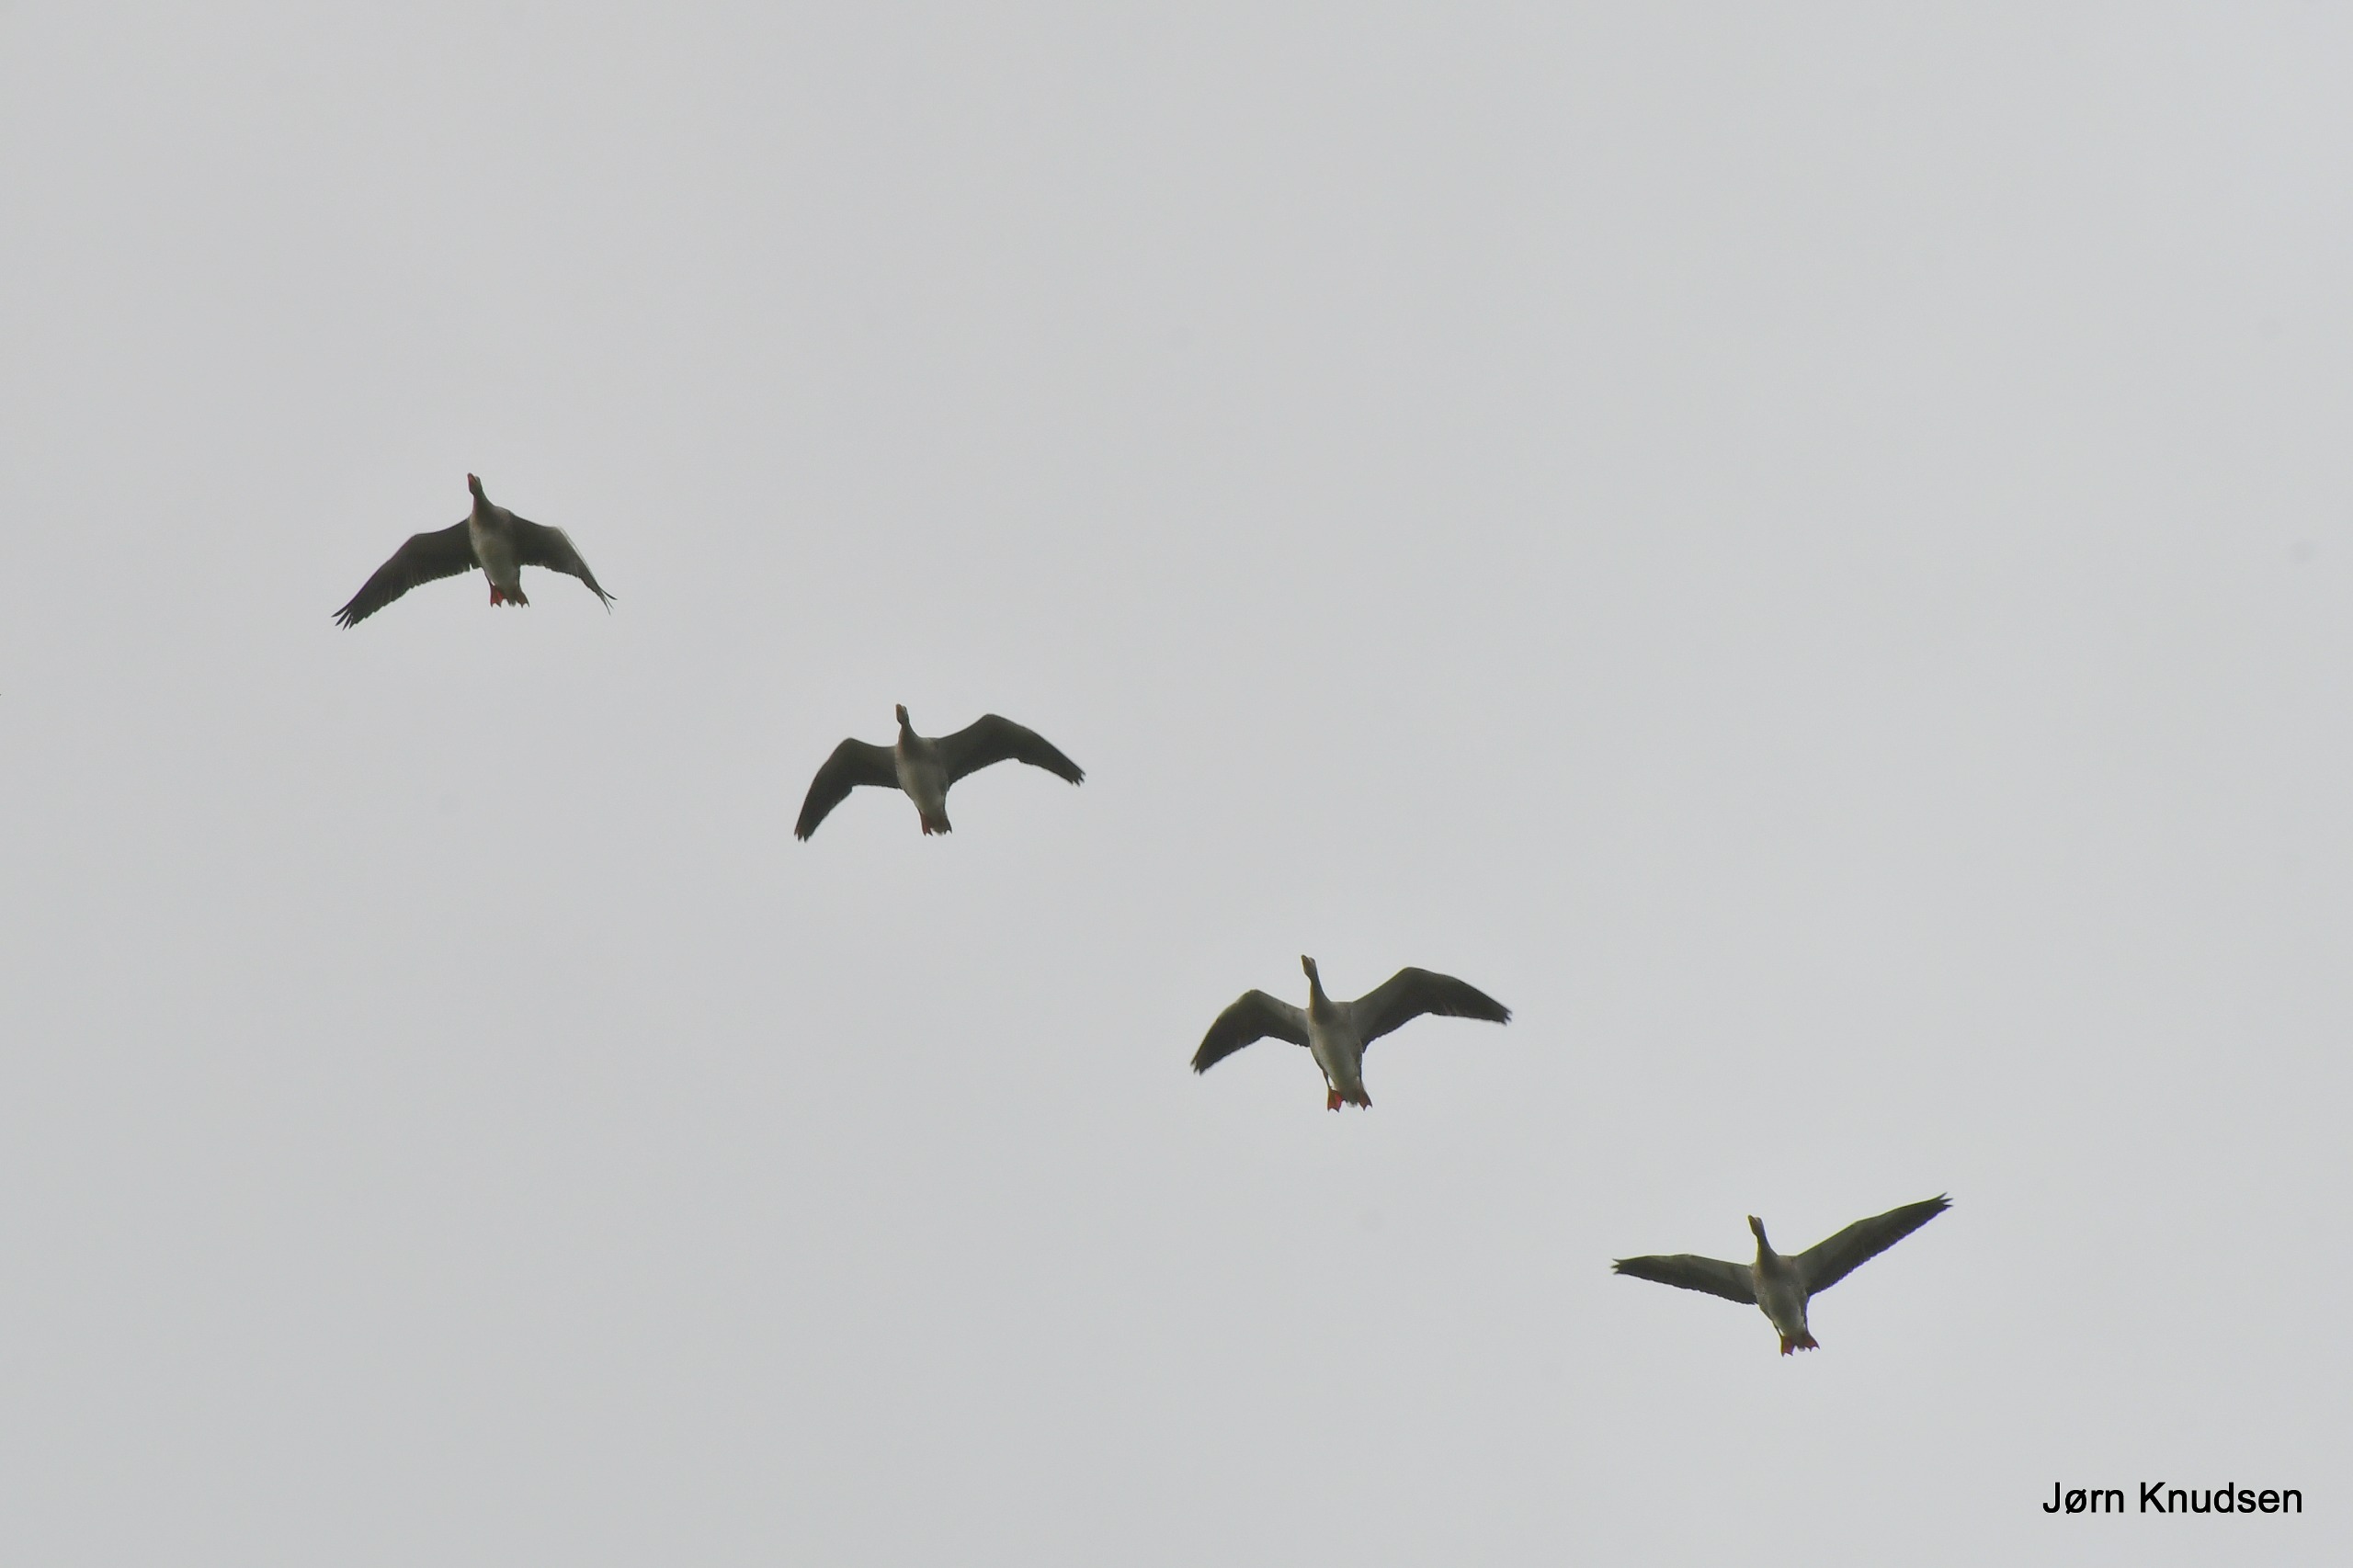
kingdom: Animalia
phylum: Chordata
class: Aves
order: Anseriformes
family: Anatidae
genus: Anser
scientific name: Anser anser
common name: Grågås
